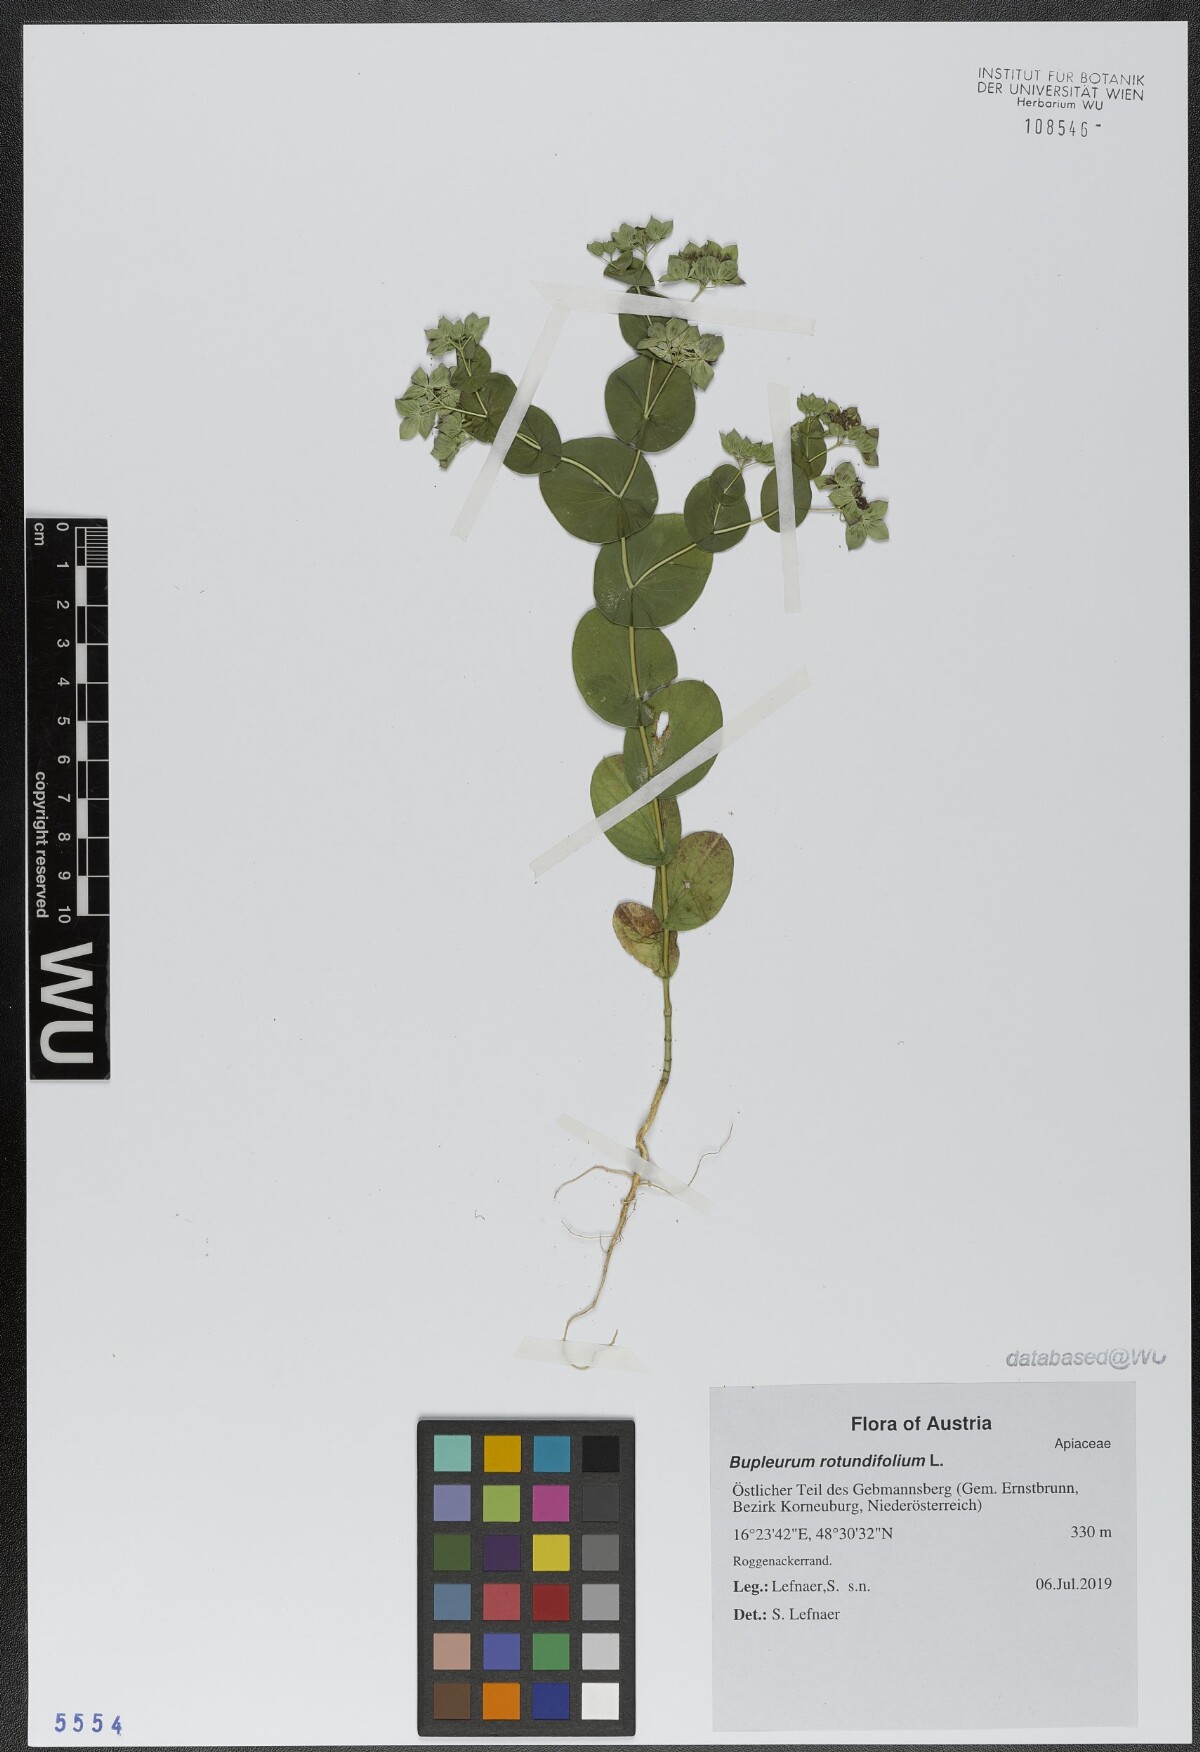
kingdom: Plantae
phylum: Tracheophyta
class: Magnoliopsida
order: Apiales
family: Apiaceae
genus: Bupleurum
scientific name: Bupleurum rotundifolium
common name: Thorow-wax
